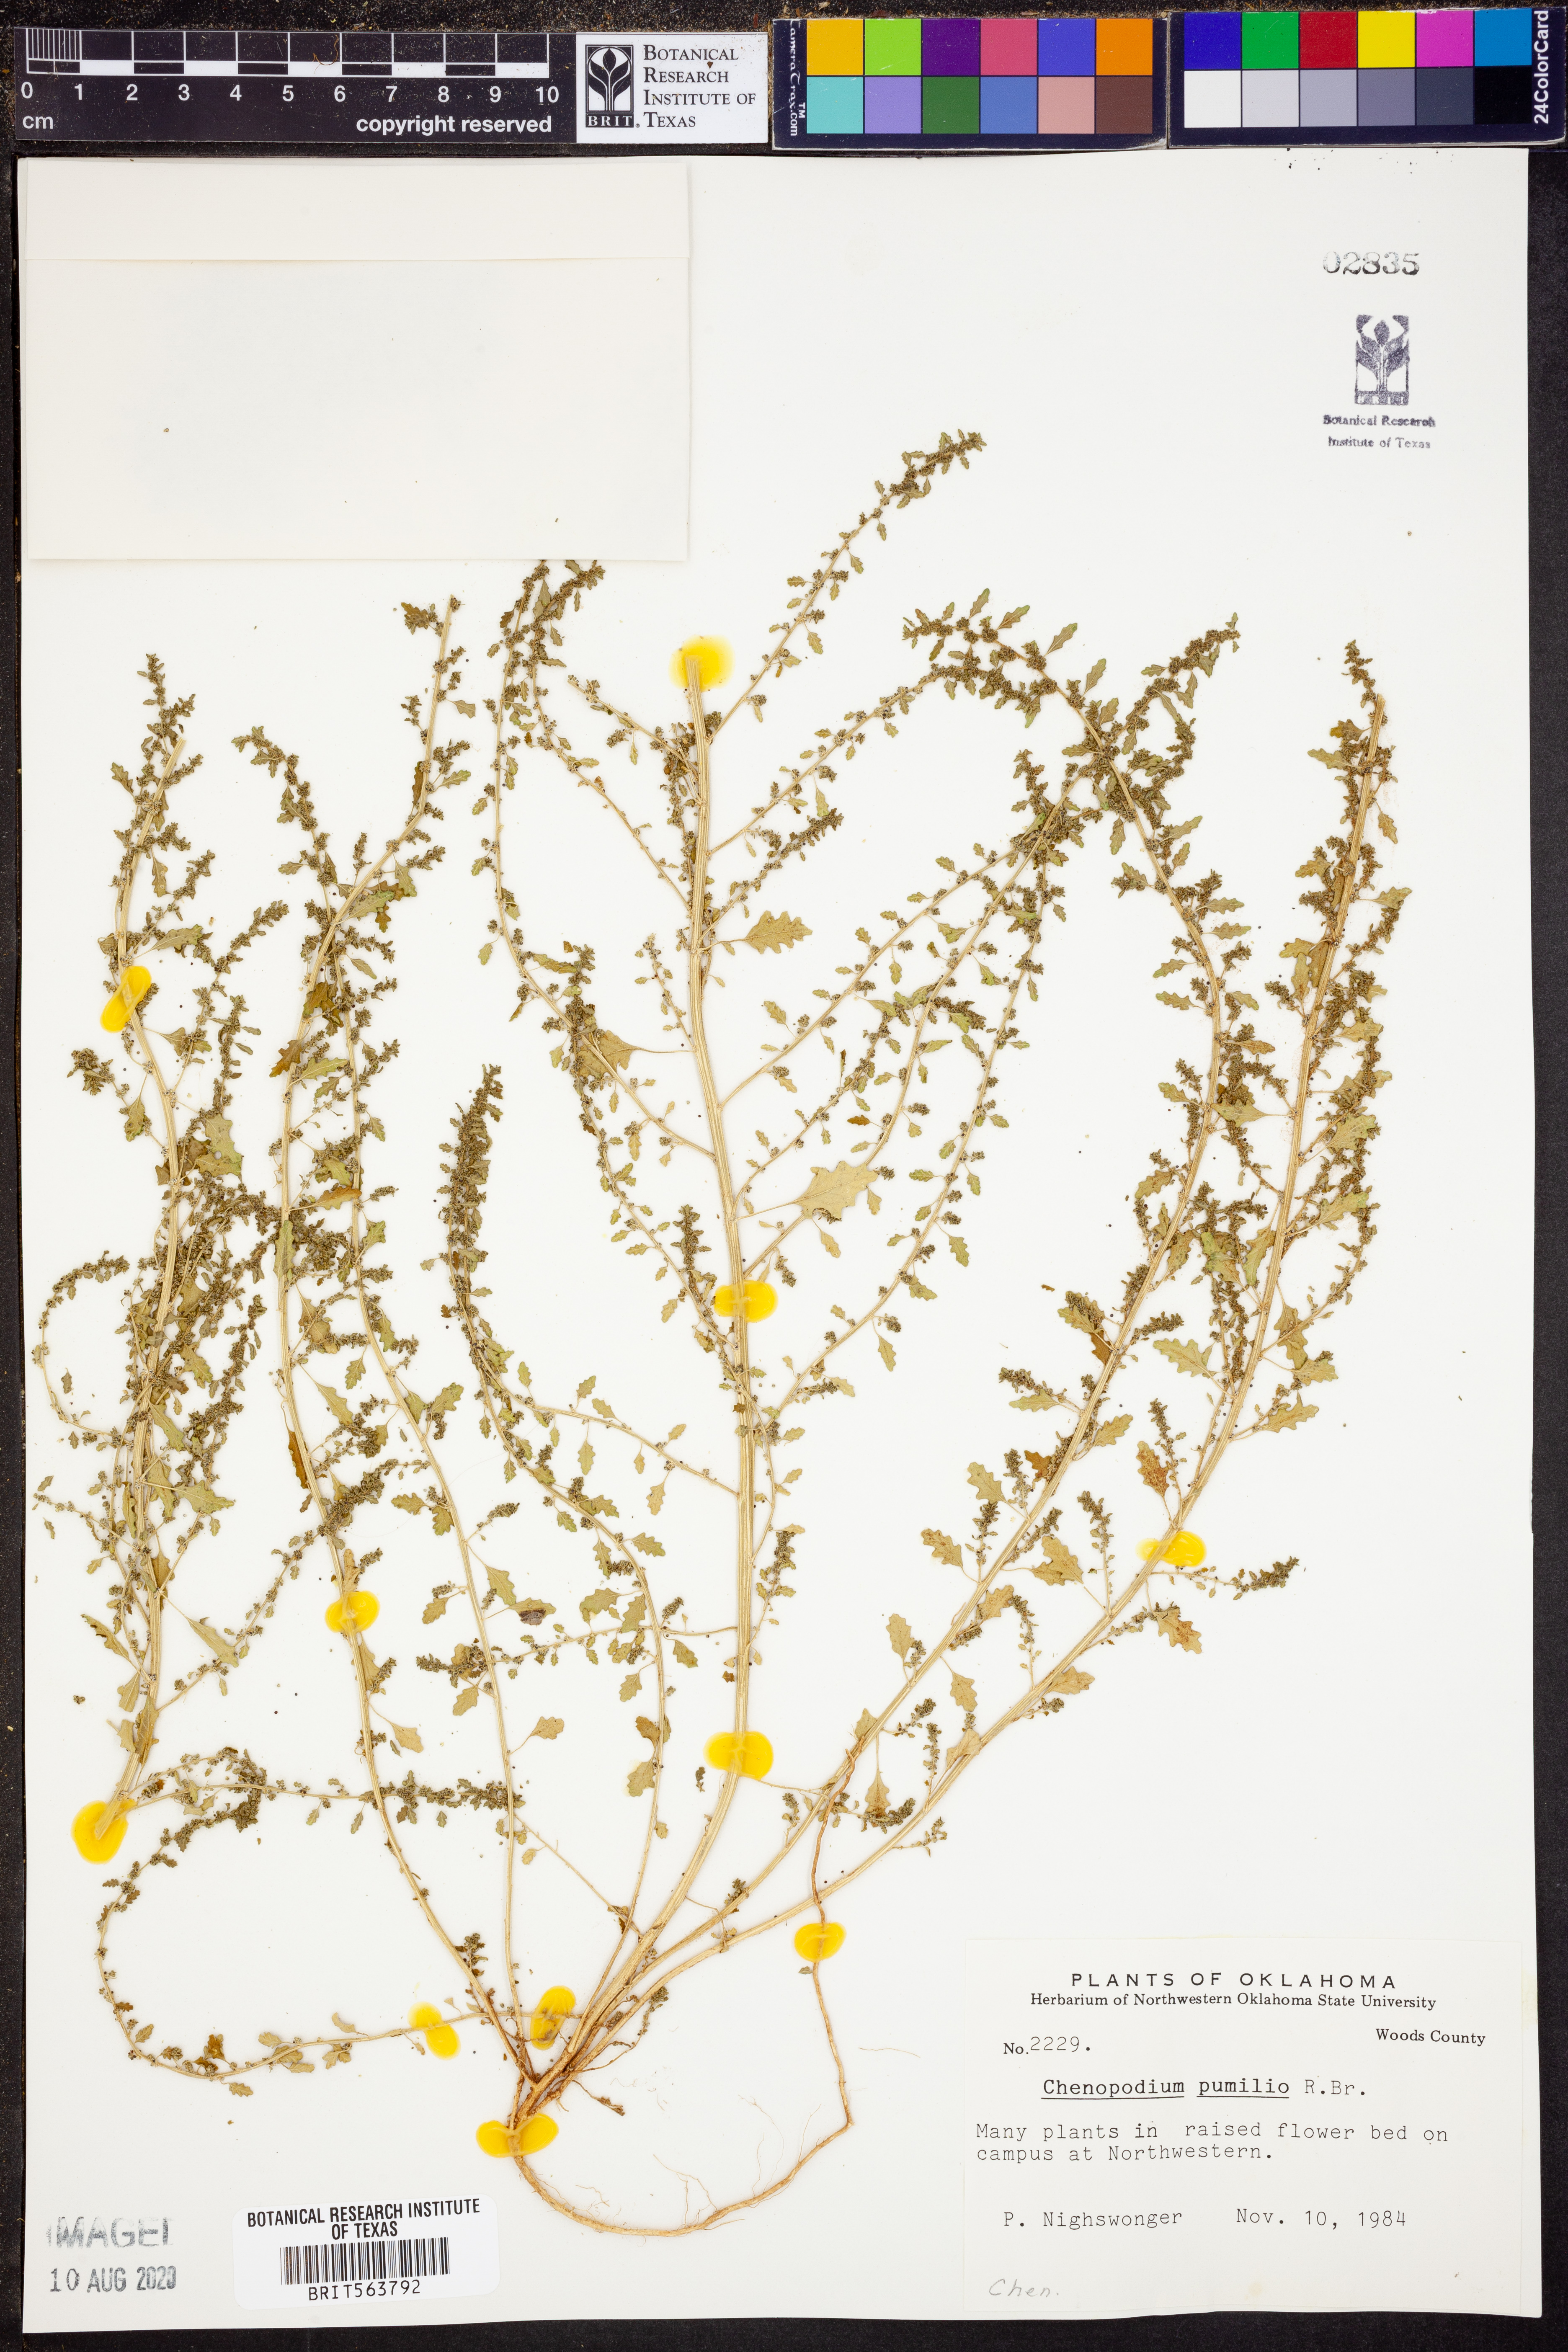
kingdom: Plantae
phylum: Tracheophyta
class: Magnoliopsida
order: Caryophyllales
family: Amaranthaceae
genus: Dysphania
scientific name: Dysphania pumilio
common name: Clammy goosefoot
